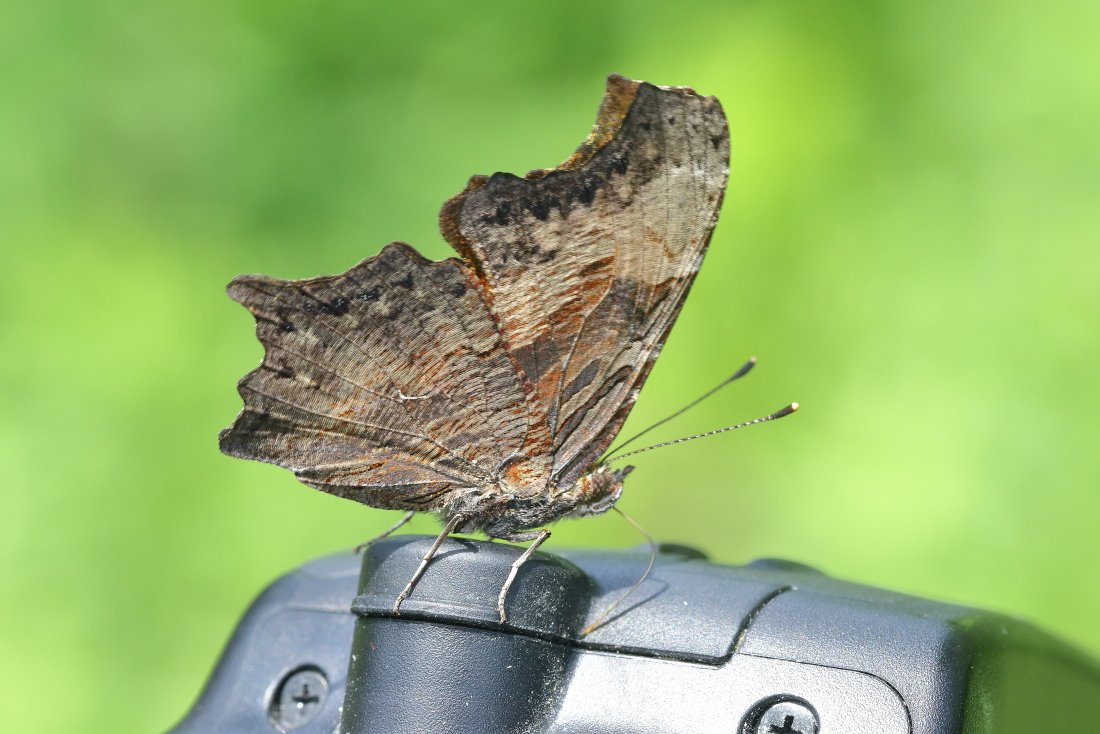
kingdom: Animalia
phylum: Arthropoda
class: Insecta
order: Lepidoptera
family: Nymphalidae
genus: Polygonia
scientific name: Polygonia progne
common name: Gray Comma
